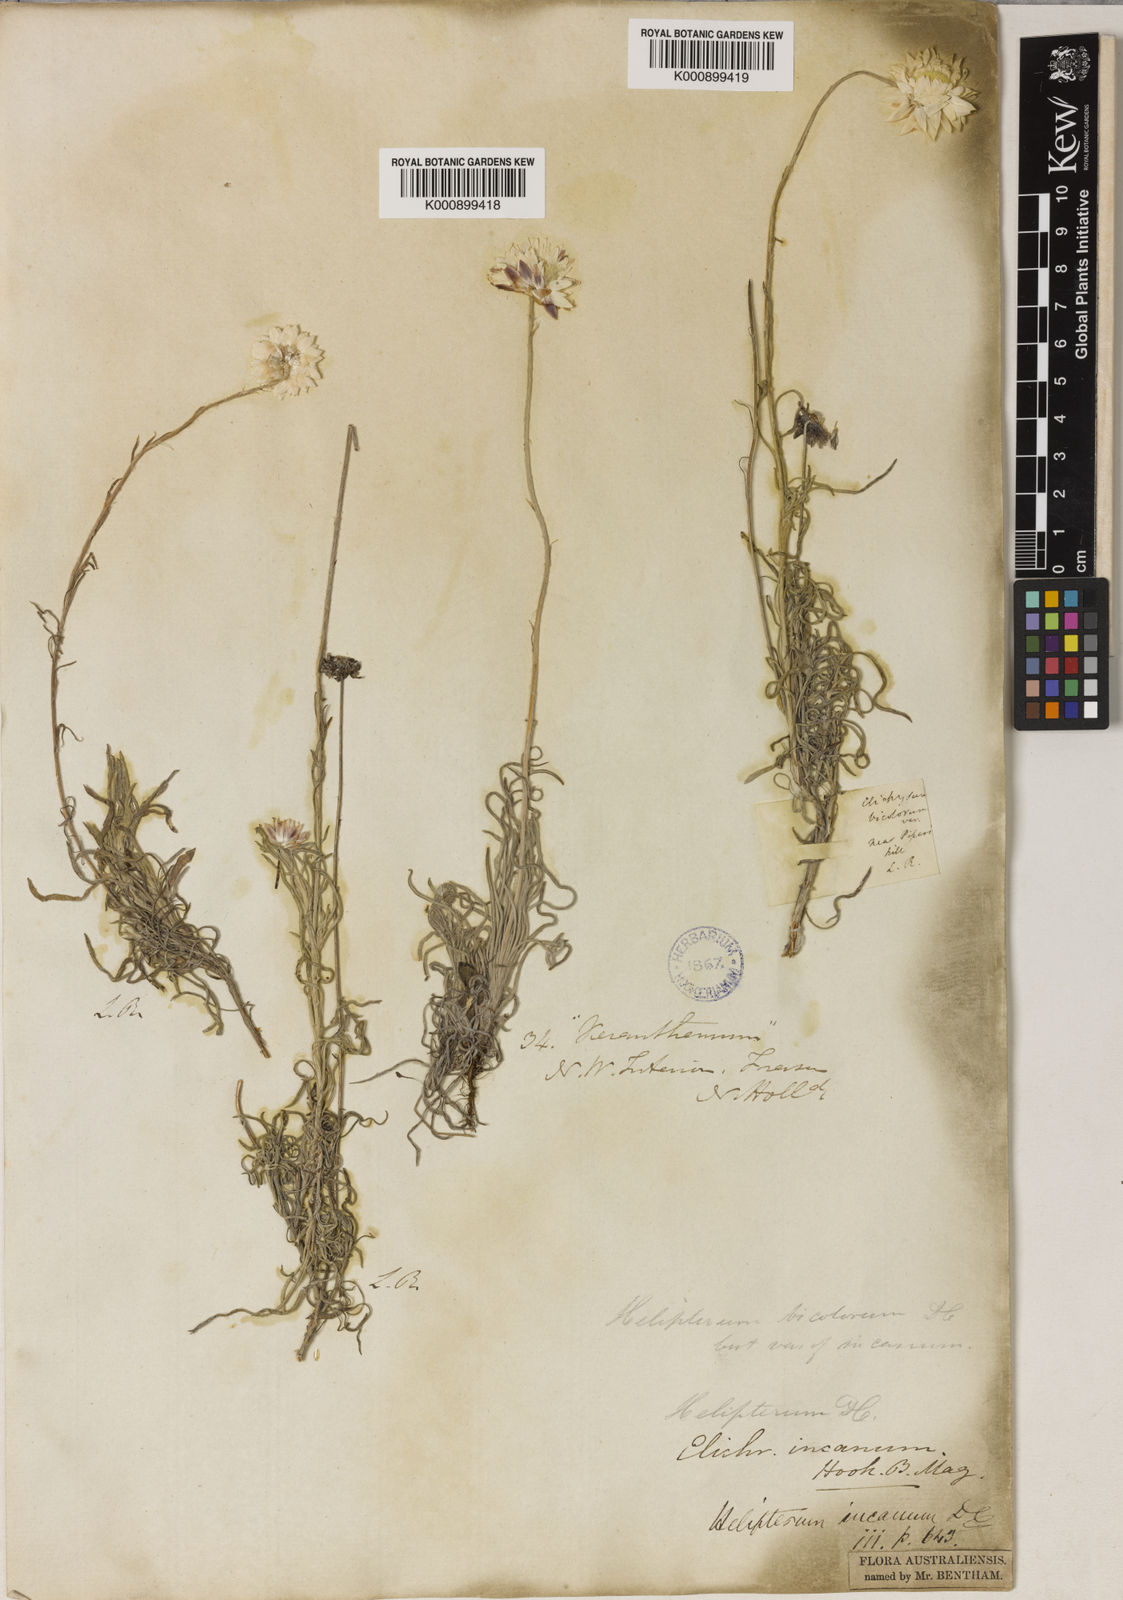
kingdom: Plantae
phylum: Tracheophyta
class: Magnoliopsida
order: Asterales
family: Asteraceae
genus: Leucochrysum
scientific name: Leucochrysum albicans
